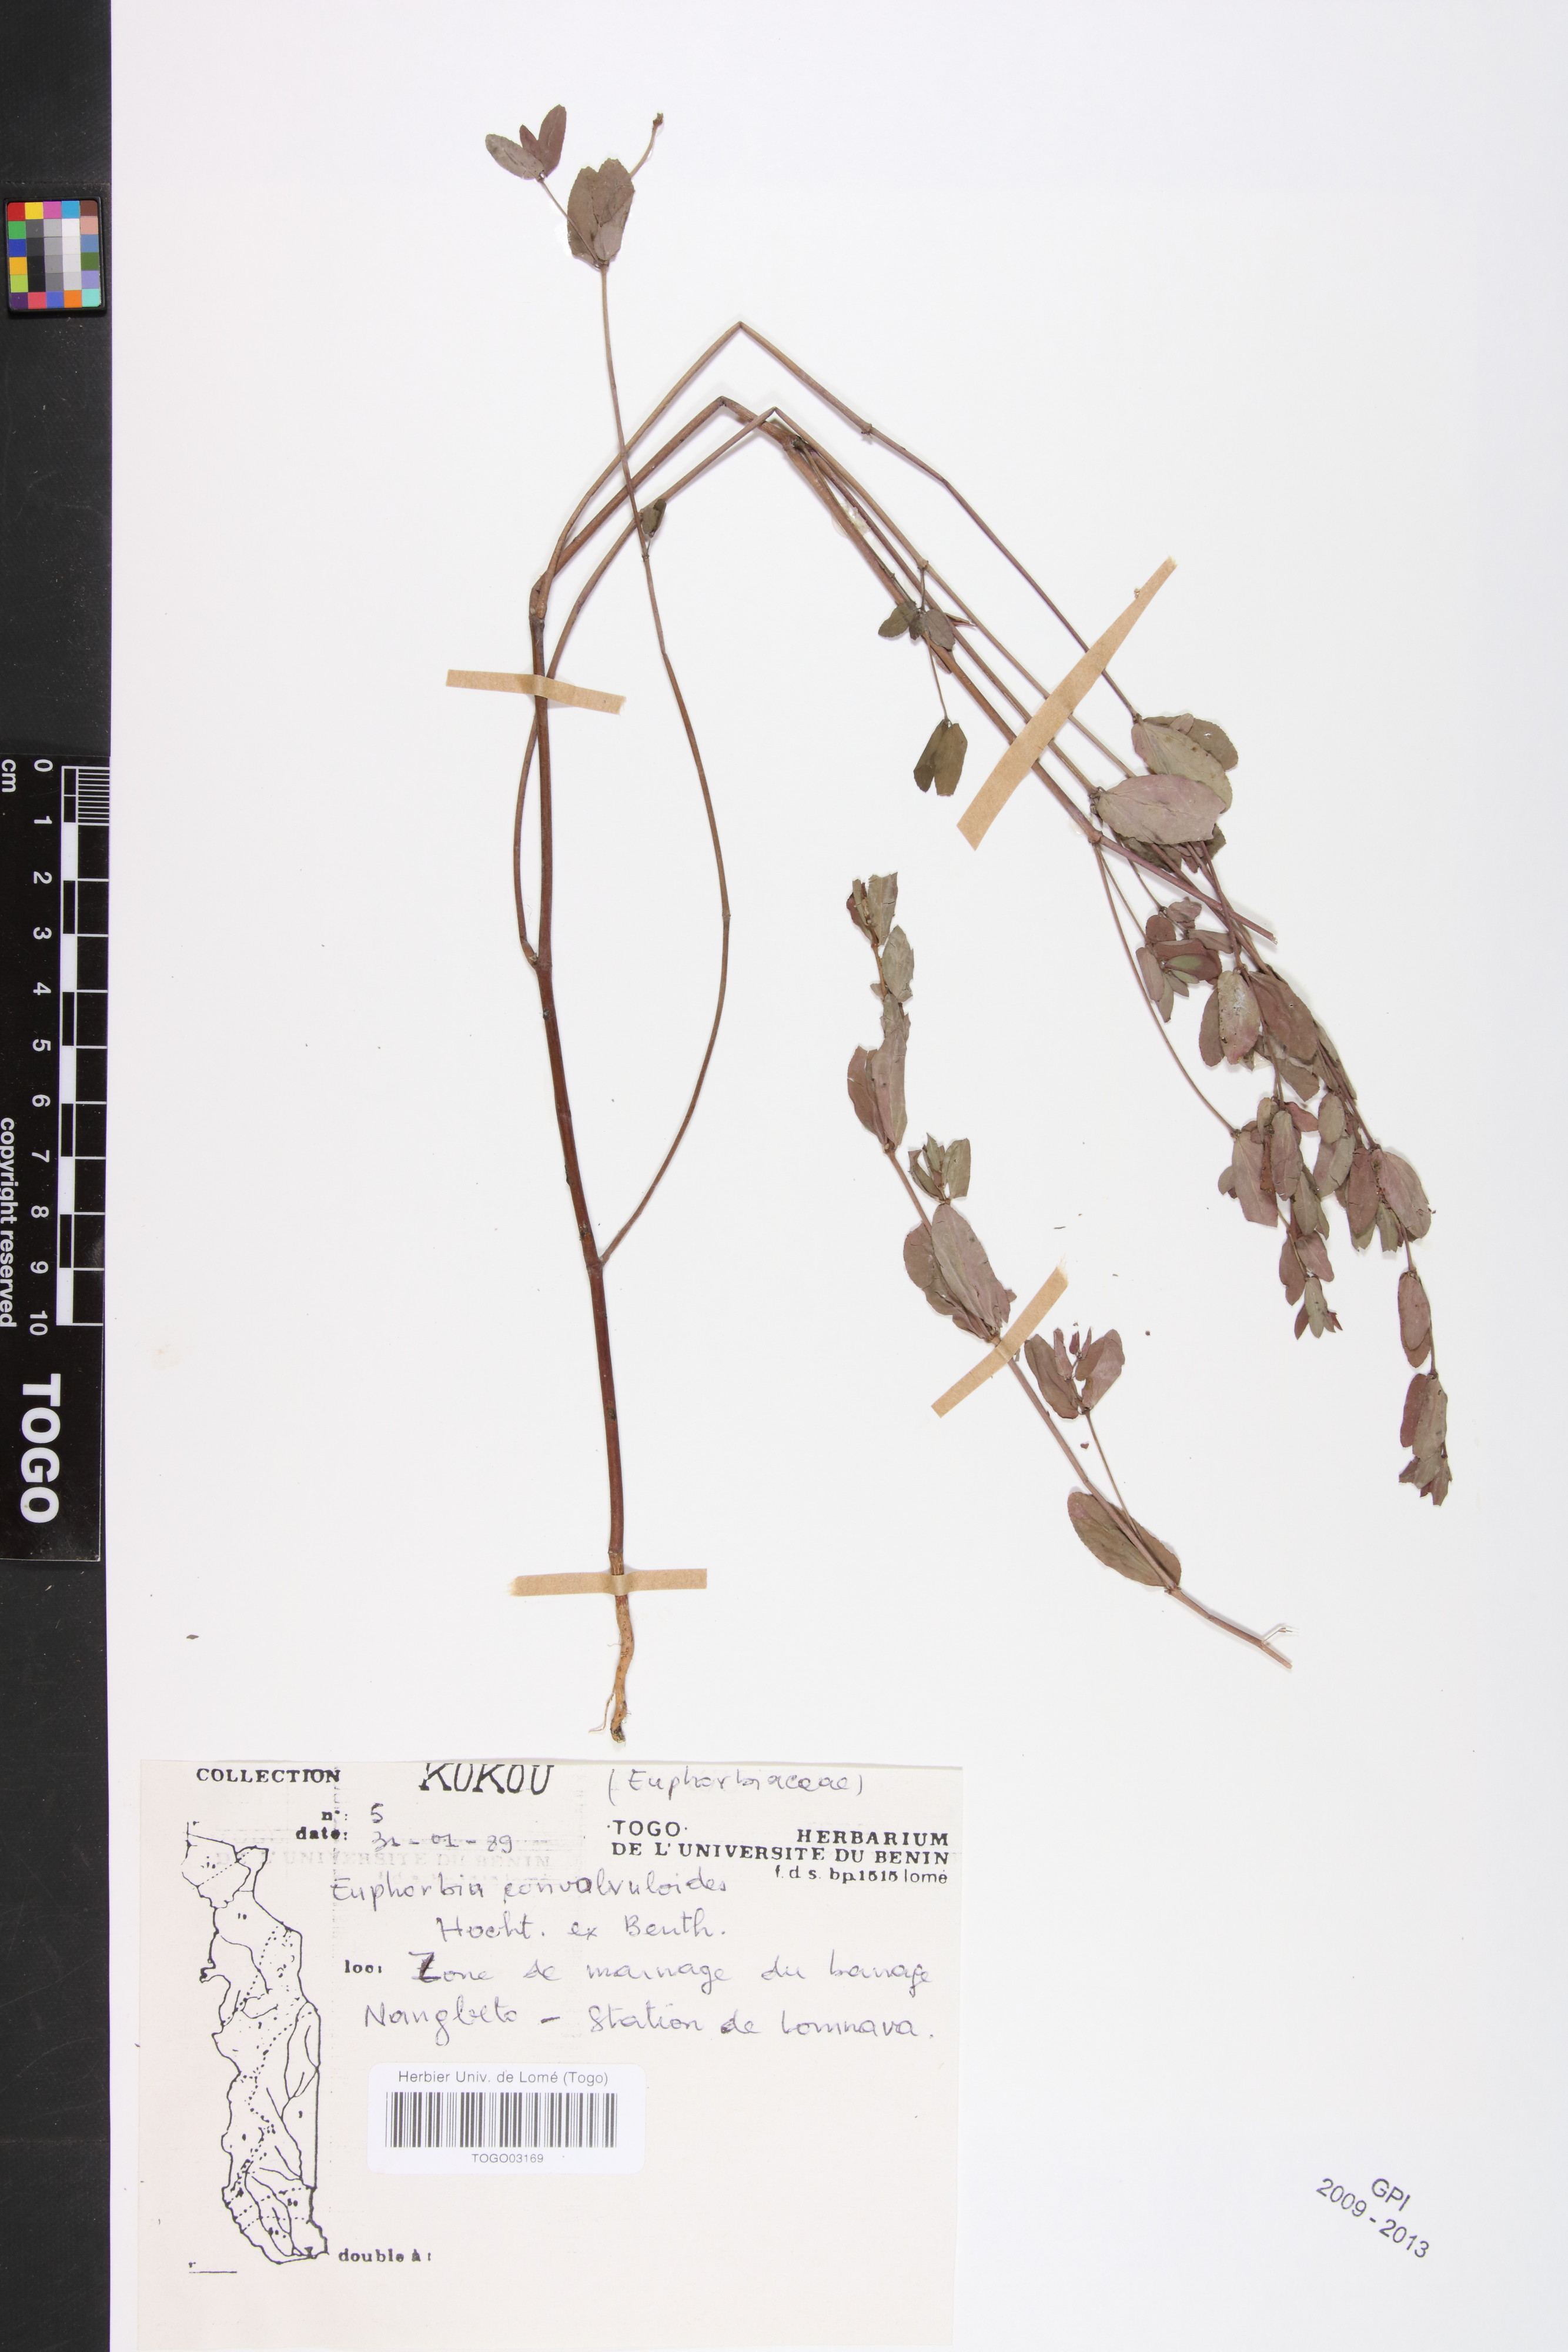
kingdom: Plantae
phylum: Tracheophyta
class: Magnoliopsida
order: Malpighiales
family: Euphorbiaceae
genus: Euphorbia
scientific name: Euphorbia convolvuloides
